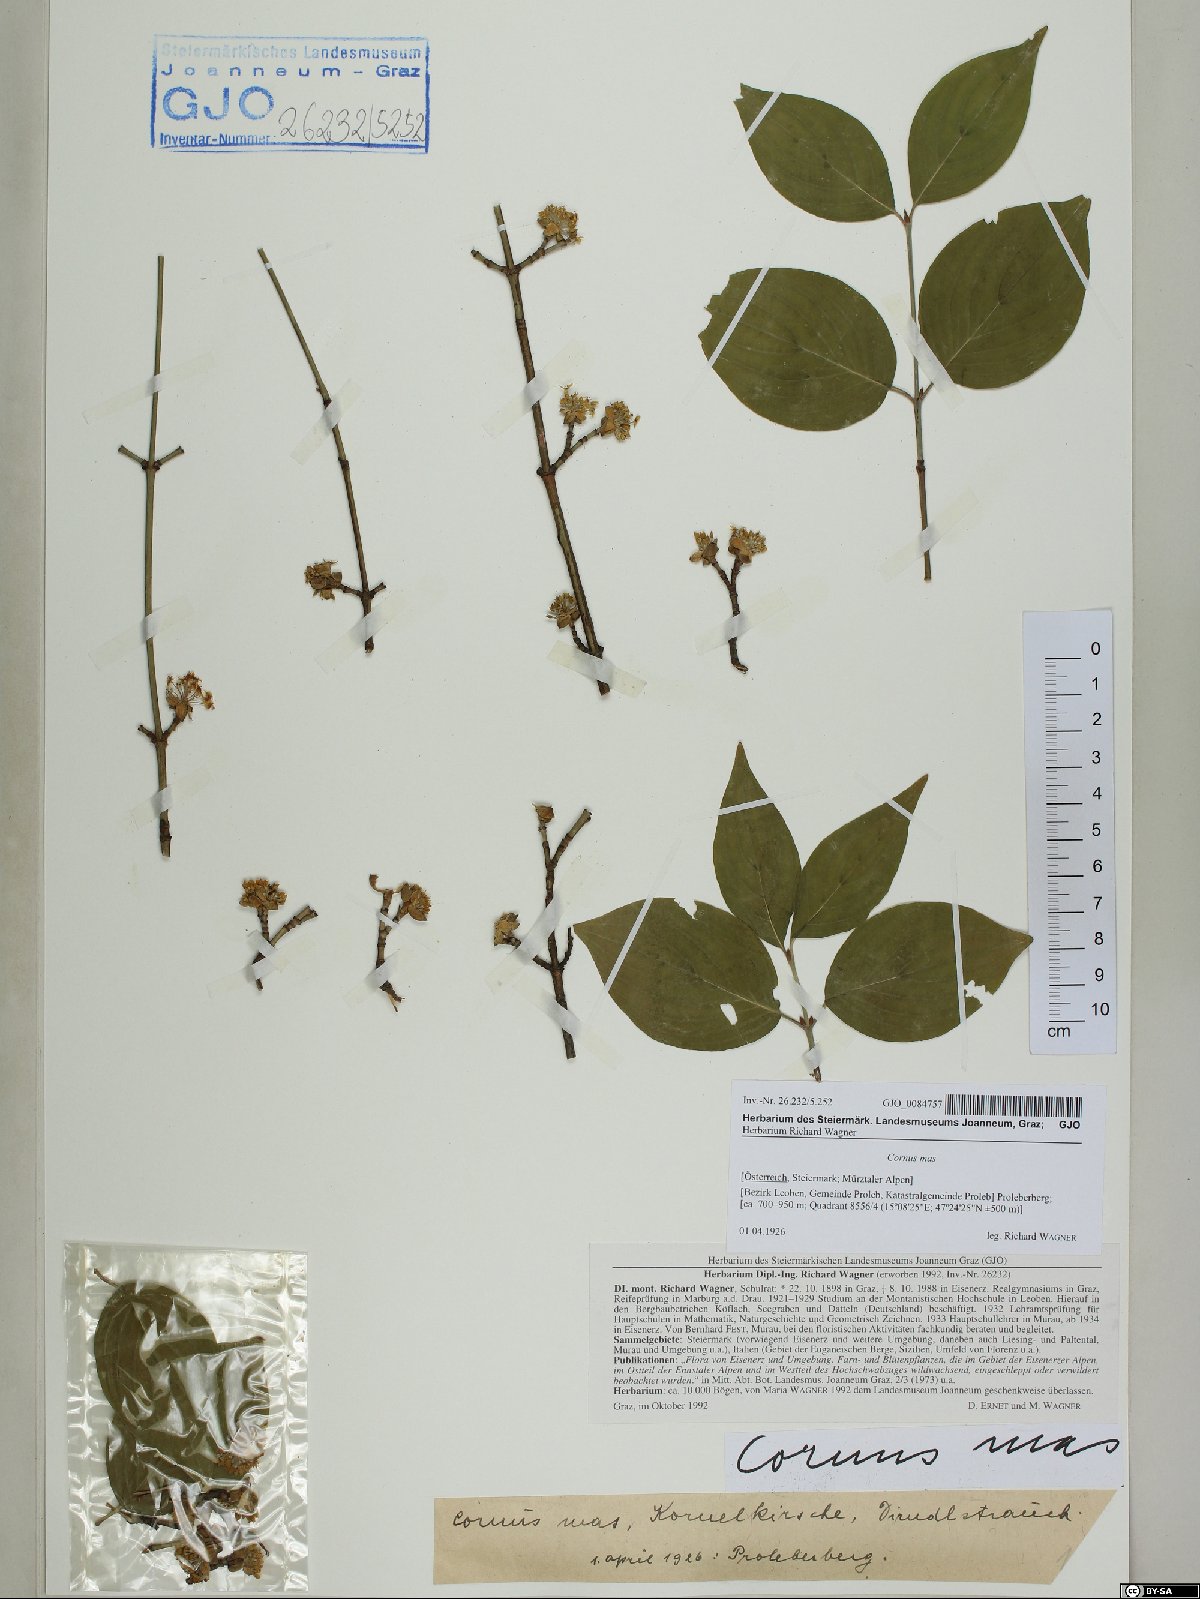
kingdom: Plantae
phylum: Tracheophyta
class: Magnoliopsida
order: Cornales
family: Cornaceae
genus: Cornus
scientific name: Cornus mas
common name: Cornelian-cherry
